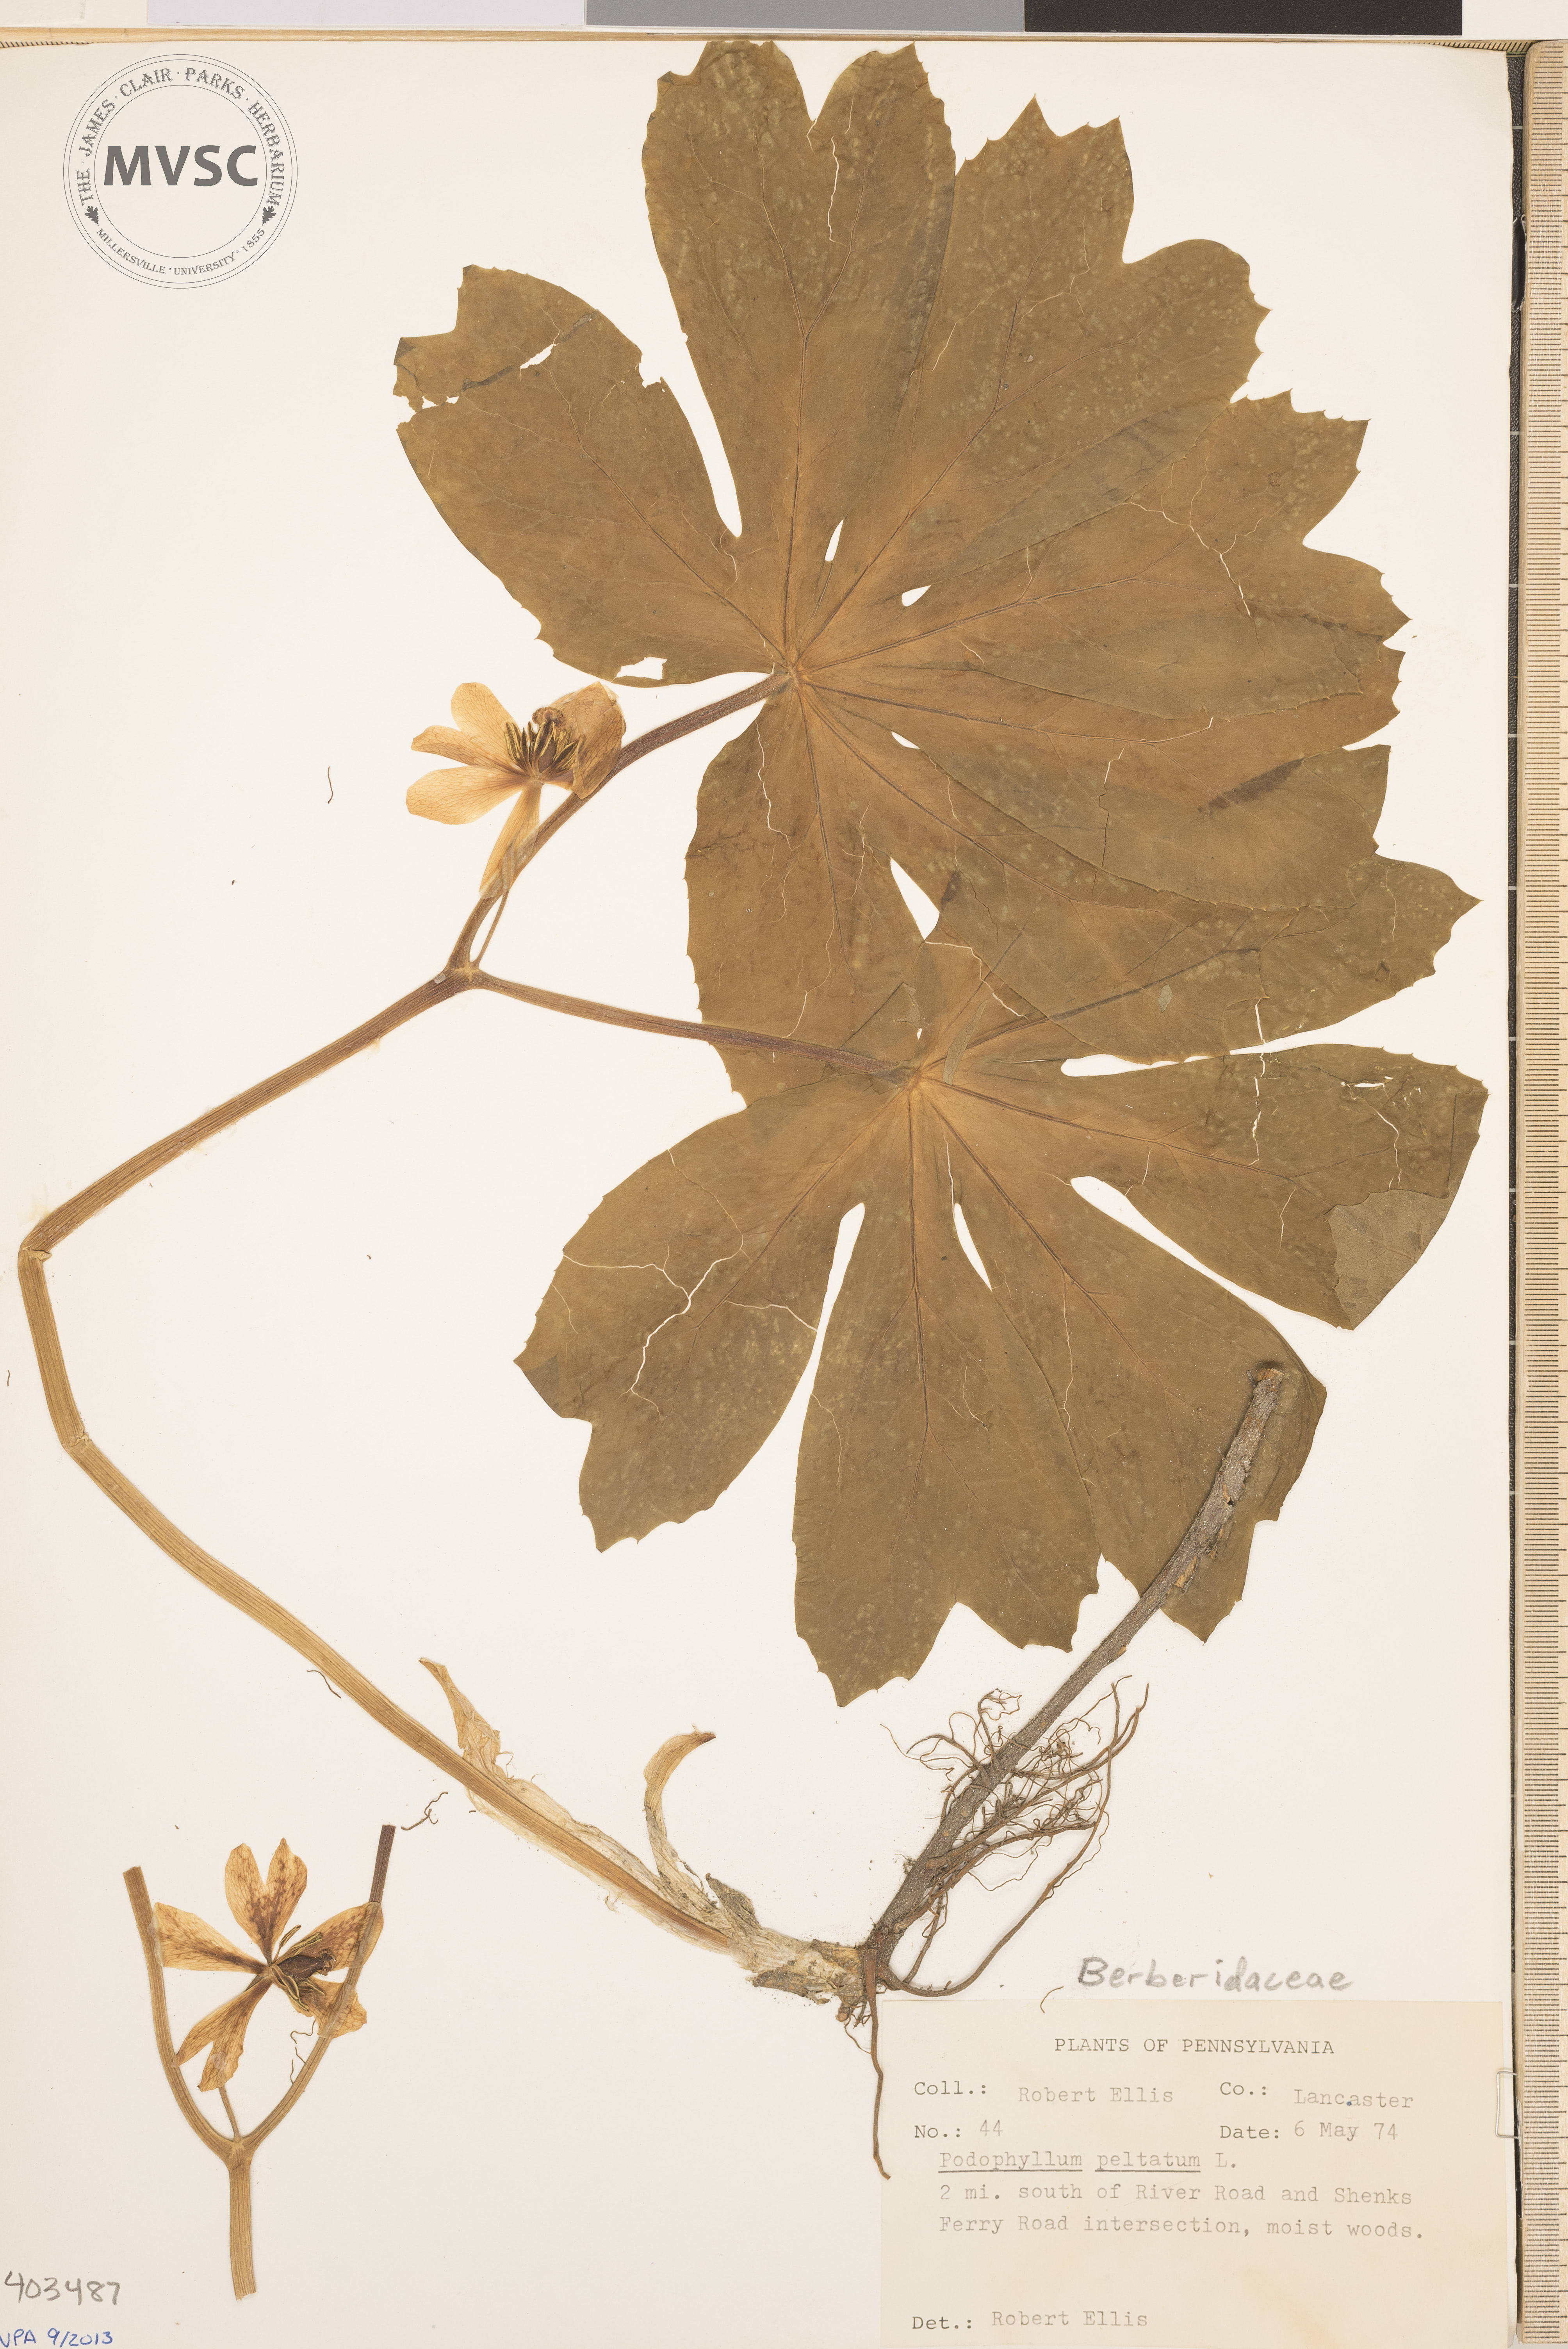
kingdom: Plantae
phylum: Tracheophyta
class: Magnoliopsida
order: Ranunculales
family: Berberidaceae
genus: Podophyllum
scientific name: Podophyllum peltatum
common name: May-Apple
